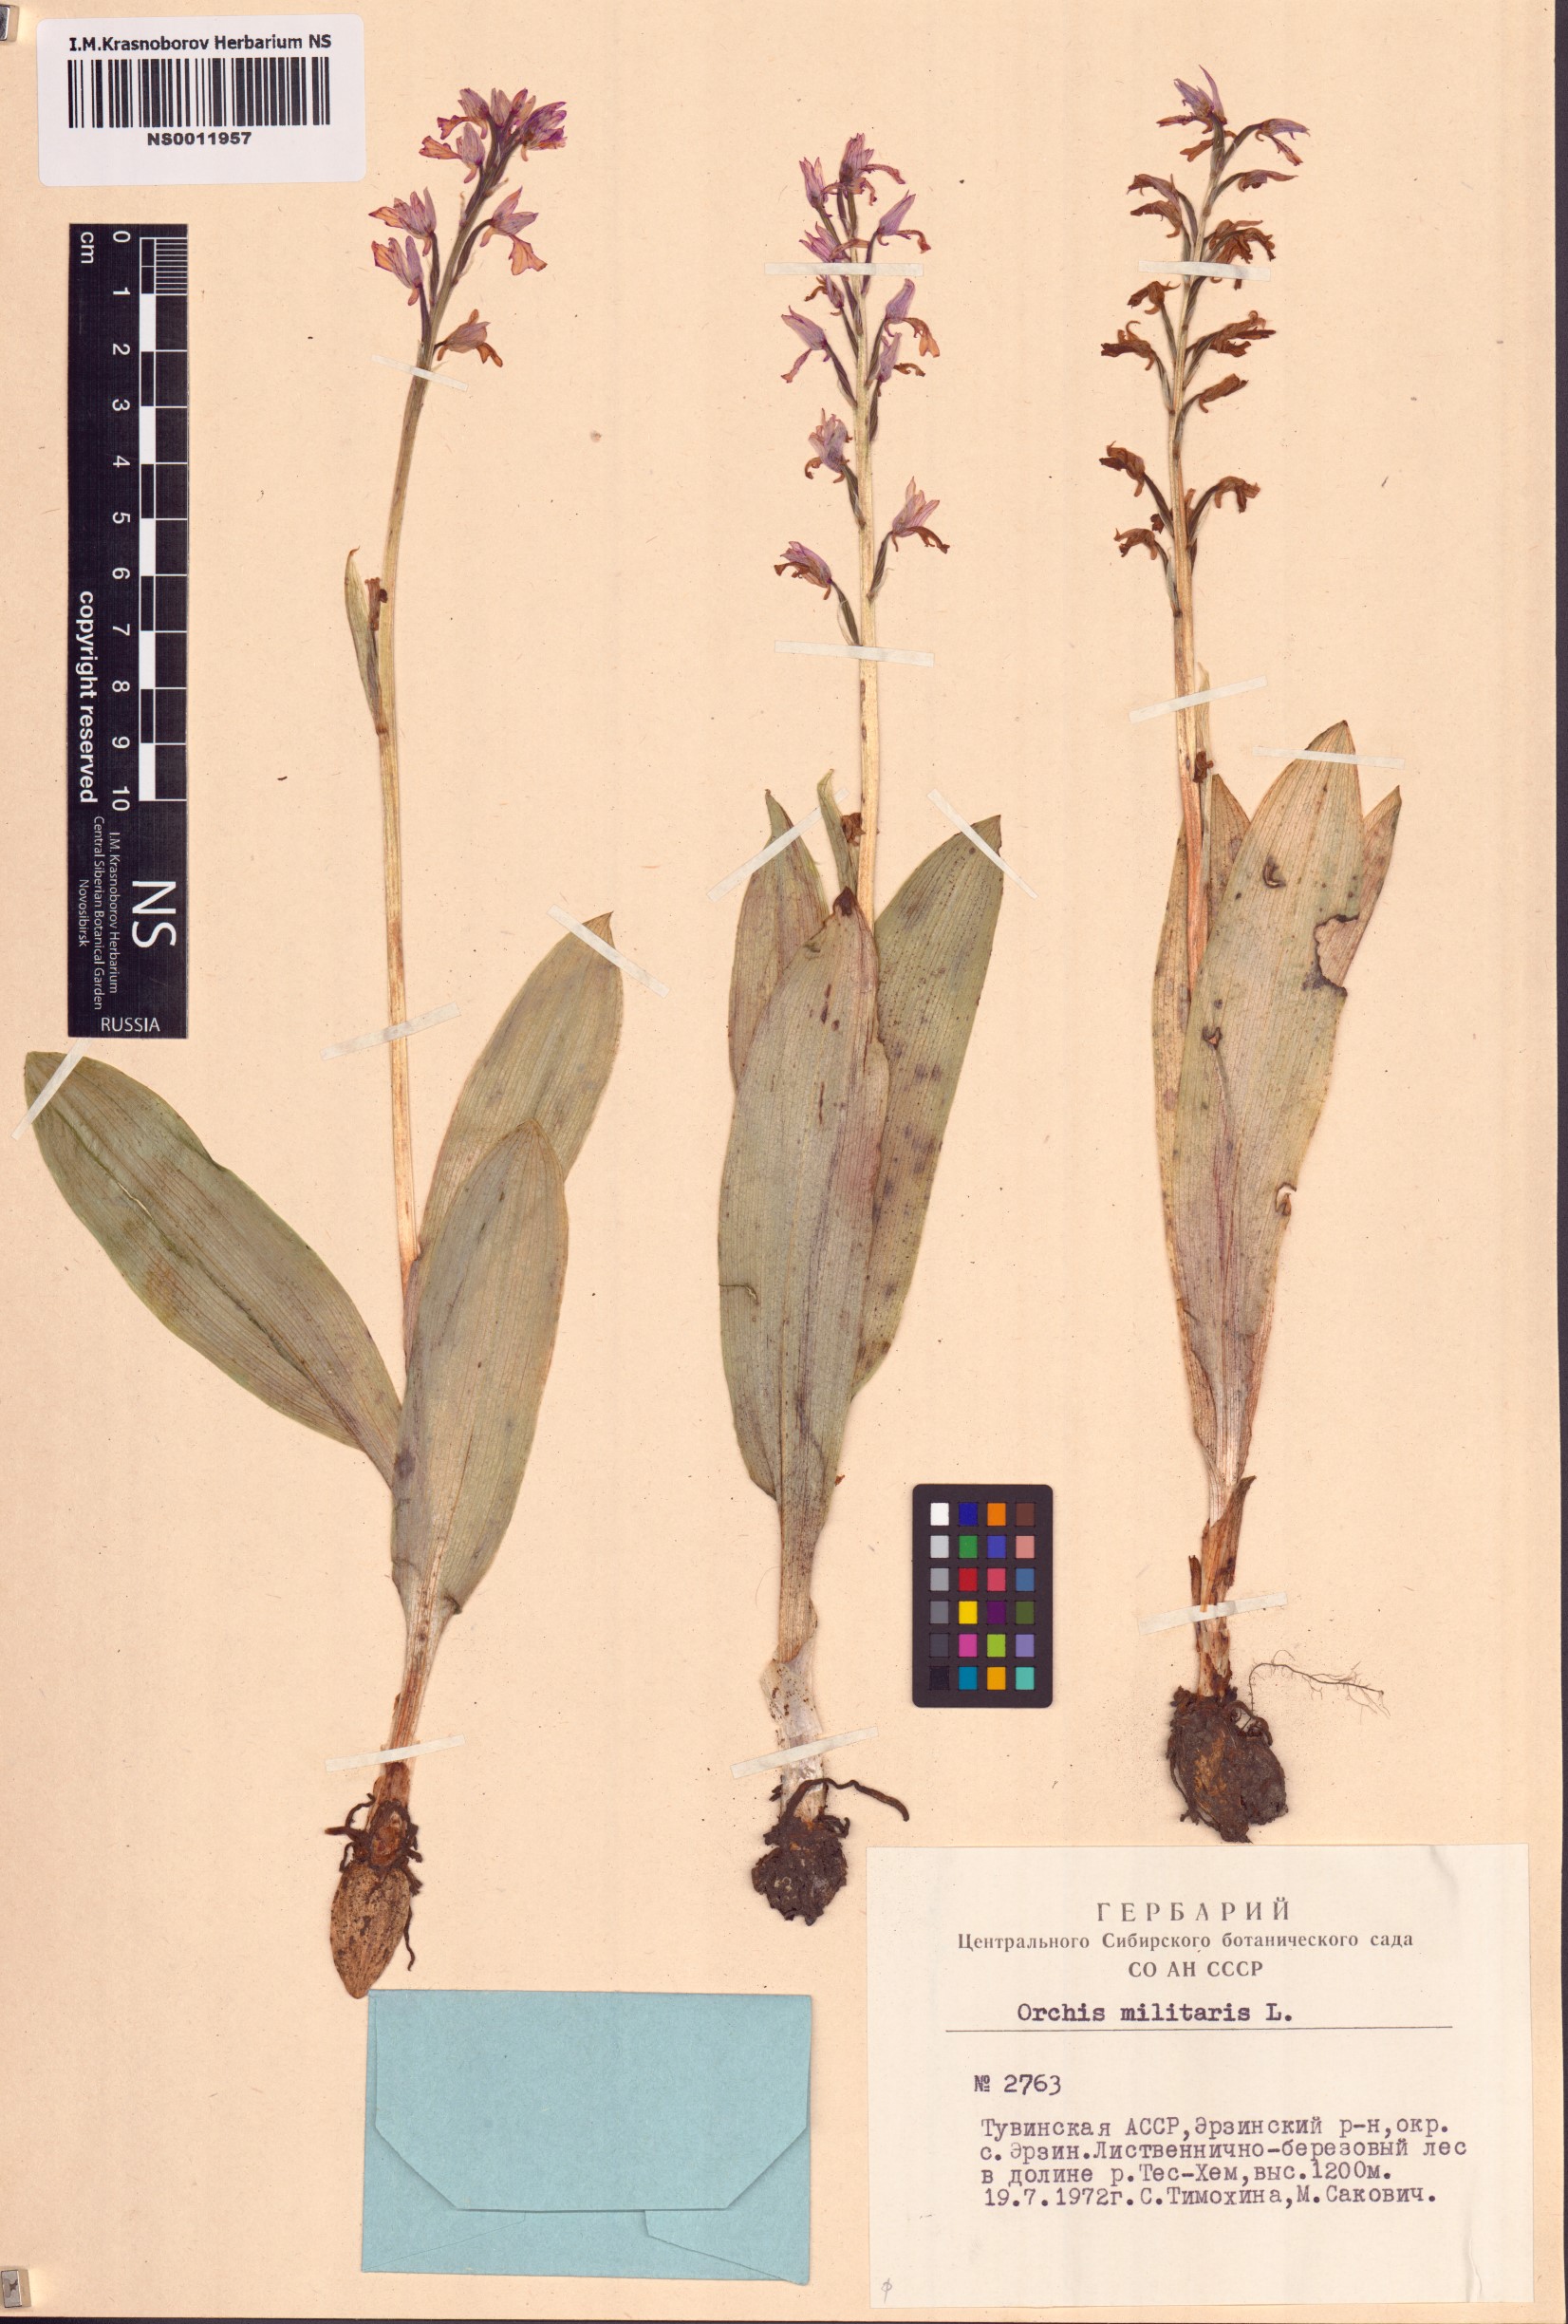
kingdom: Plantae
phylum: Tracheophyta
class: Liliopsida
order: Asparagales
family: Orchidaceae
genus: Orchis
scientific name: Orchis militaris
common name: Military orchid
